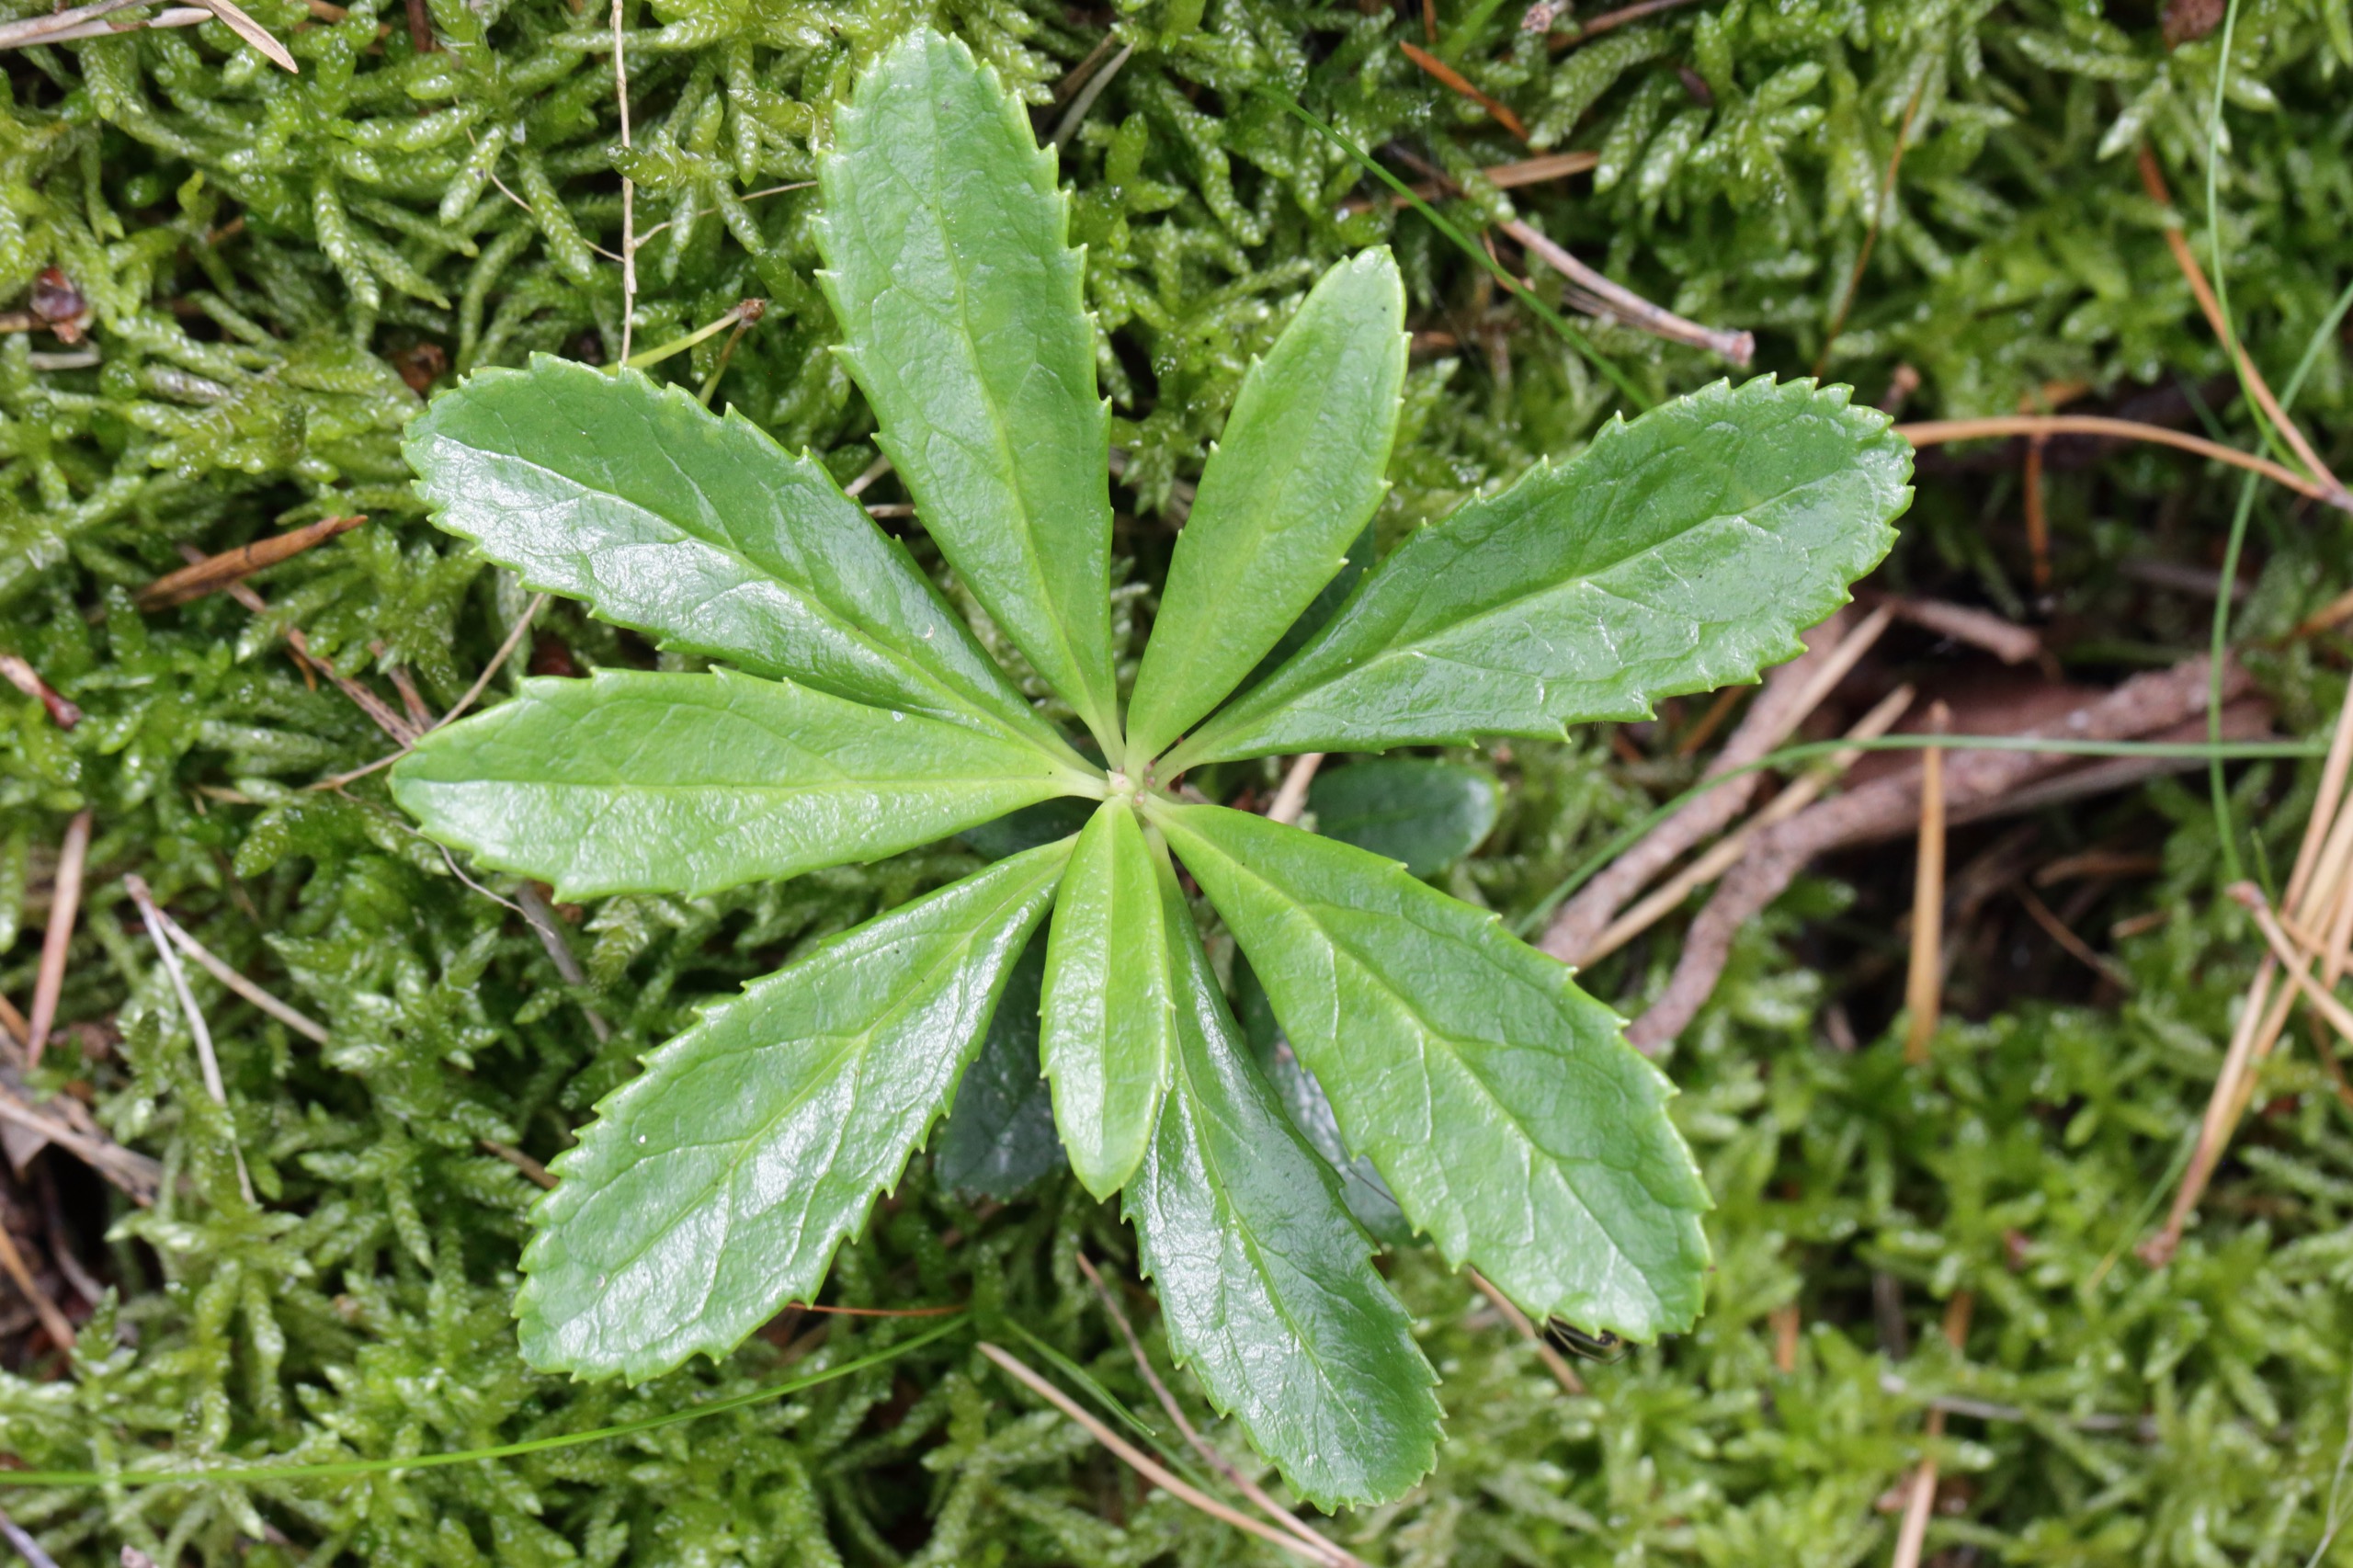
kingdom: Plantae
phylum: Tracheophyta
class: Magnoliopsida
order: Ericales
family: Ericaceae
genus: Chimaphila
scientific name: Chimaphila umbellata
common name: Skærm-vintergrøn
